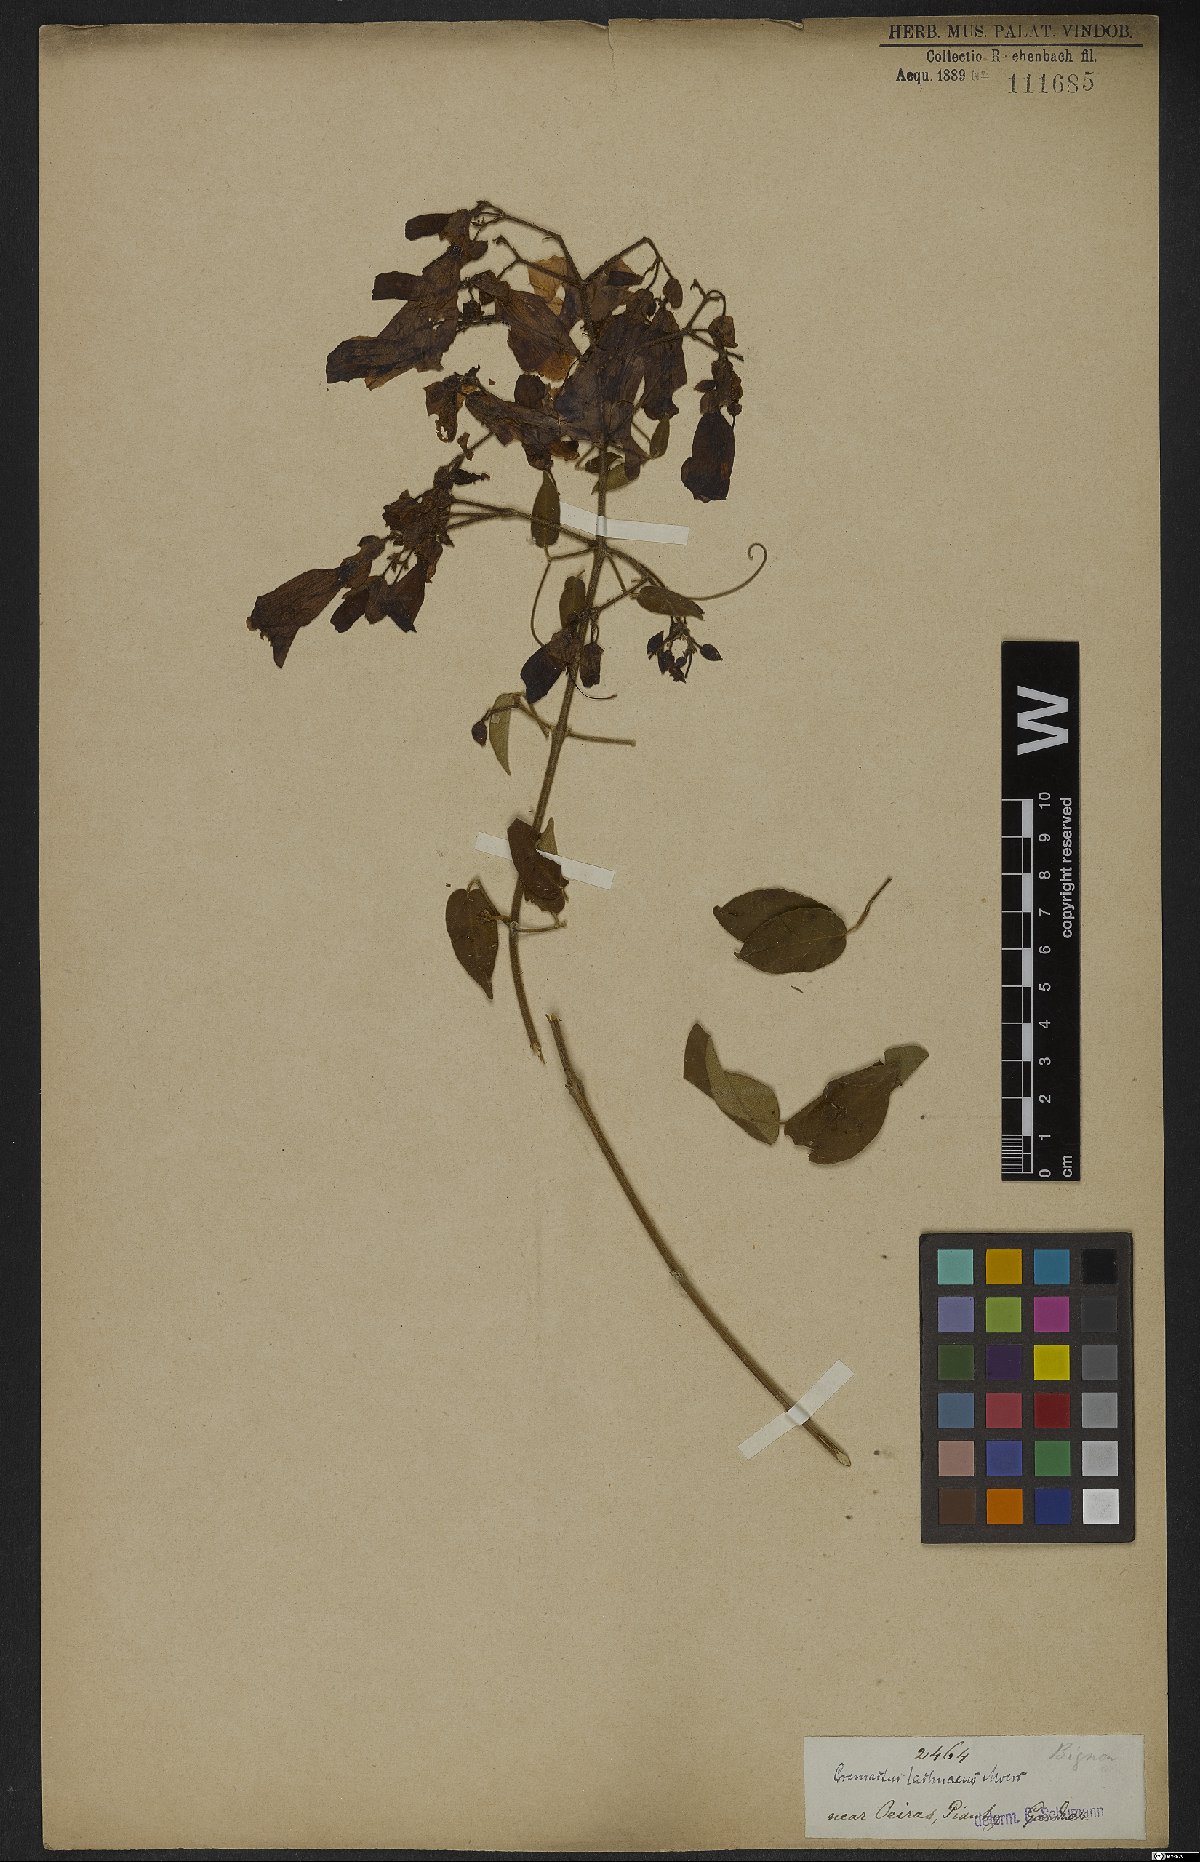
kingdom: Plantae
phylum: Tracheophyta
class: Magnoliopsida
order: Lamiales
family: Bignoniaceae
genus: Cuspidaria
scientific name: Cuspidaria lachnaea
